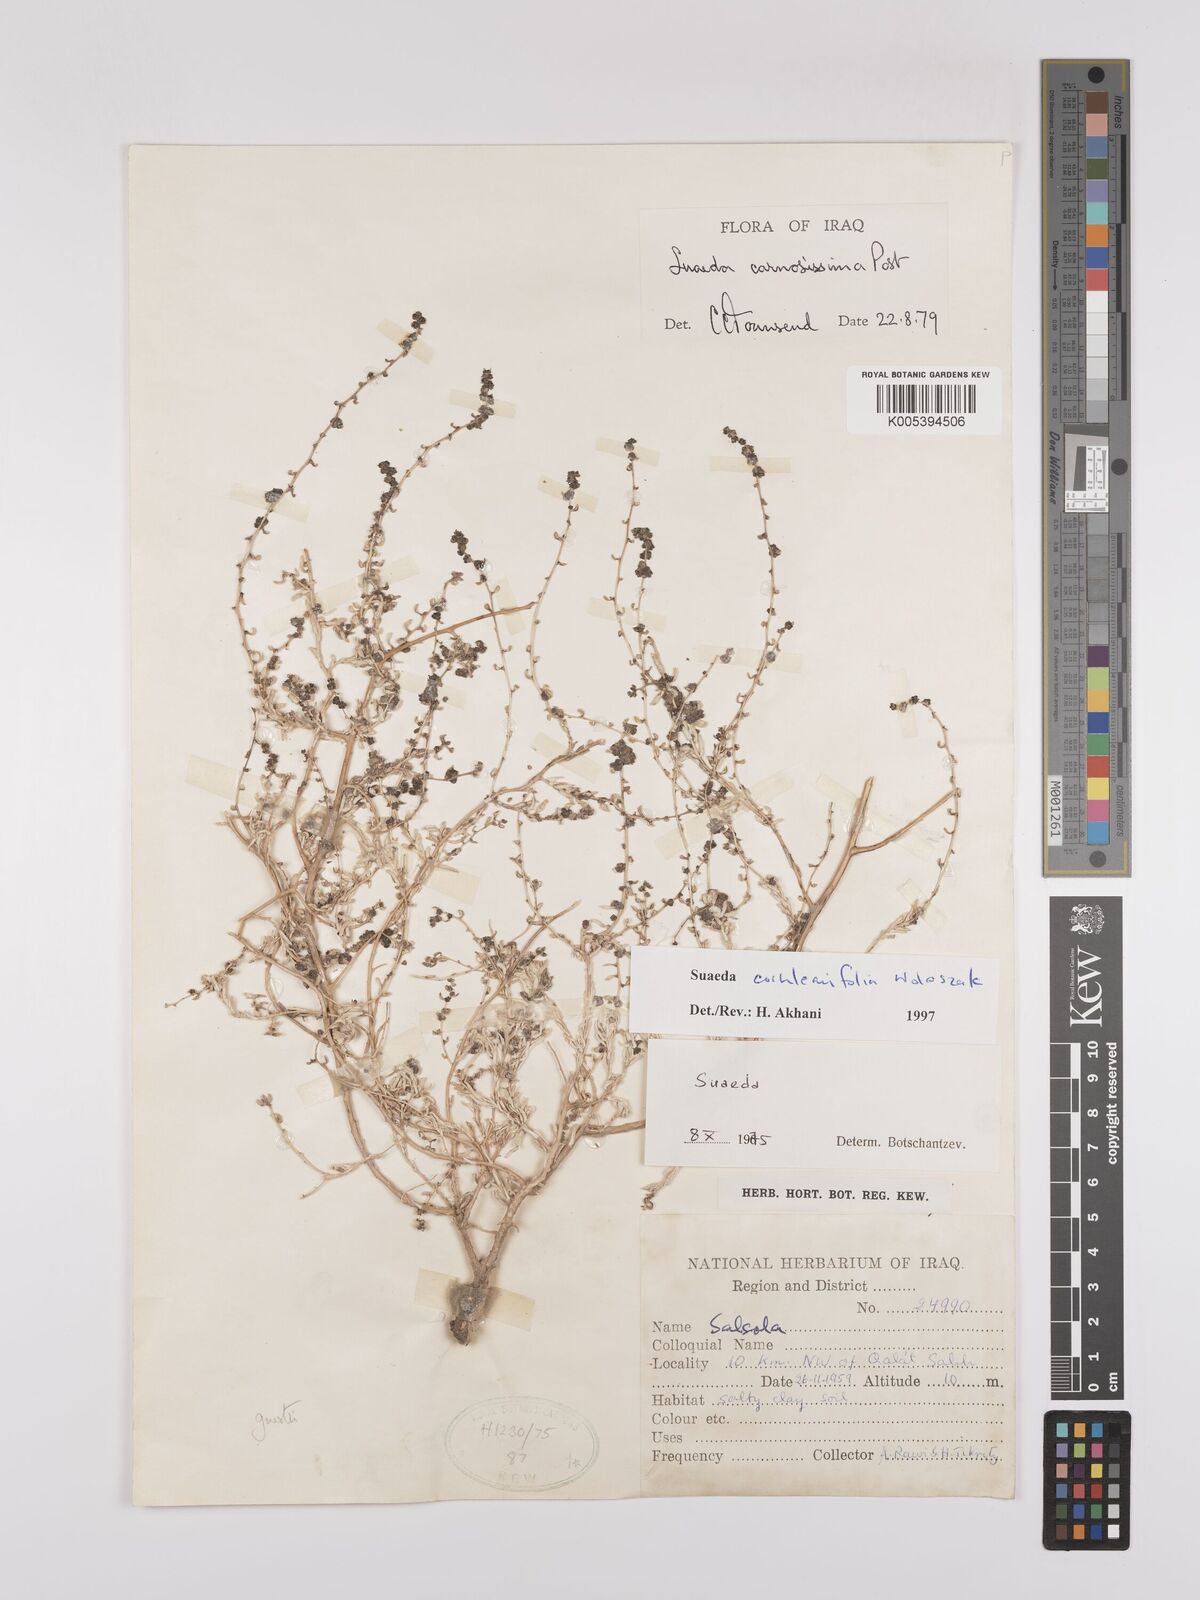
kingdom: Plantae
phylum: Tracheophyta
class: Magnoliopsida
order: Caryophyllales
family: Amaranthaceae
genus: Suaeda
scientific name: Suaeda carnosissima
